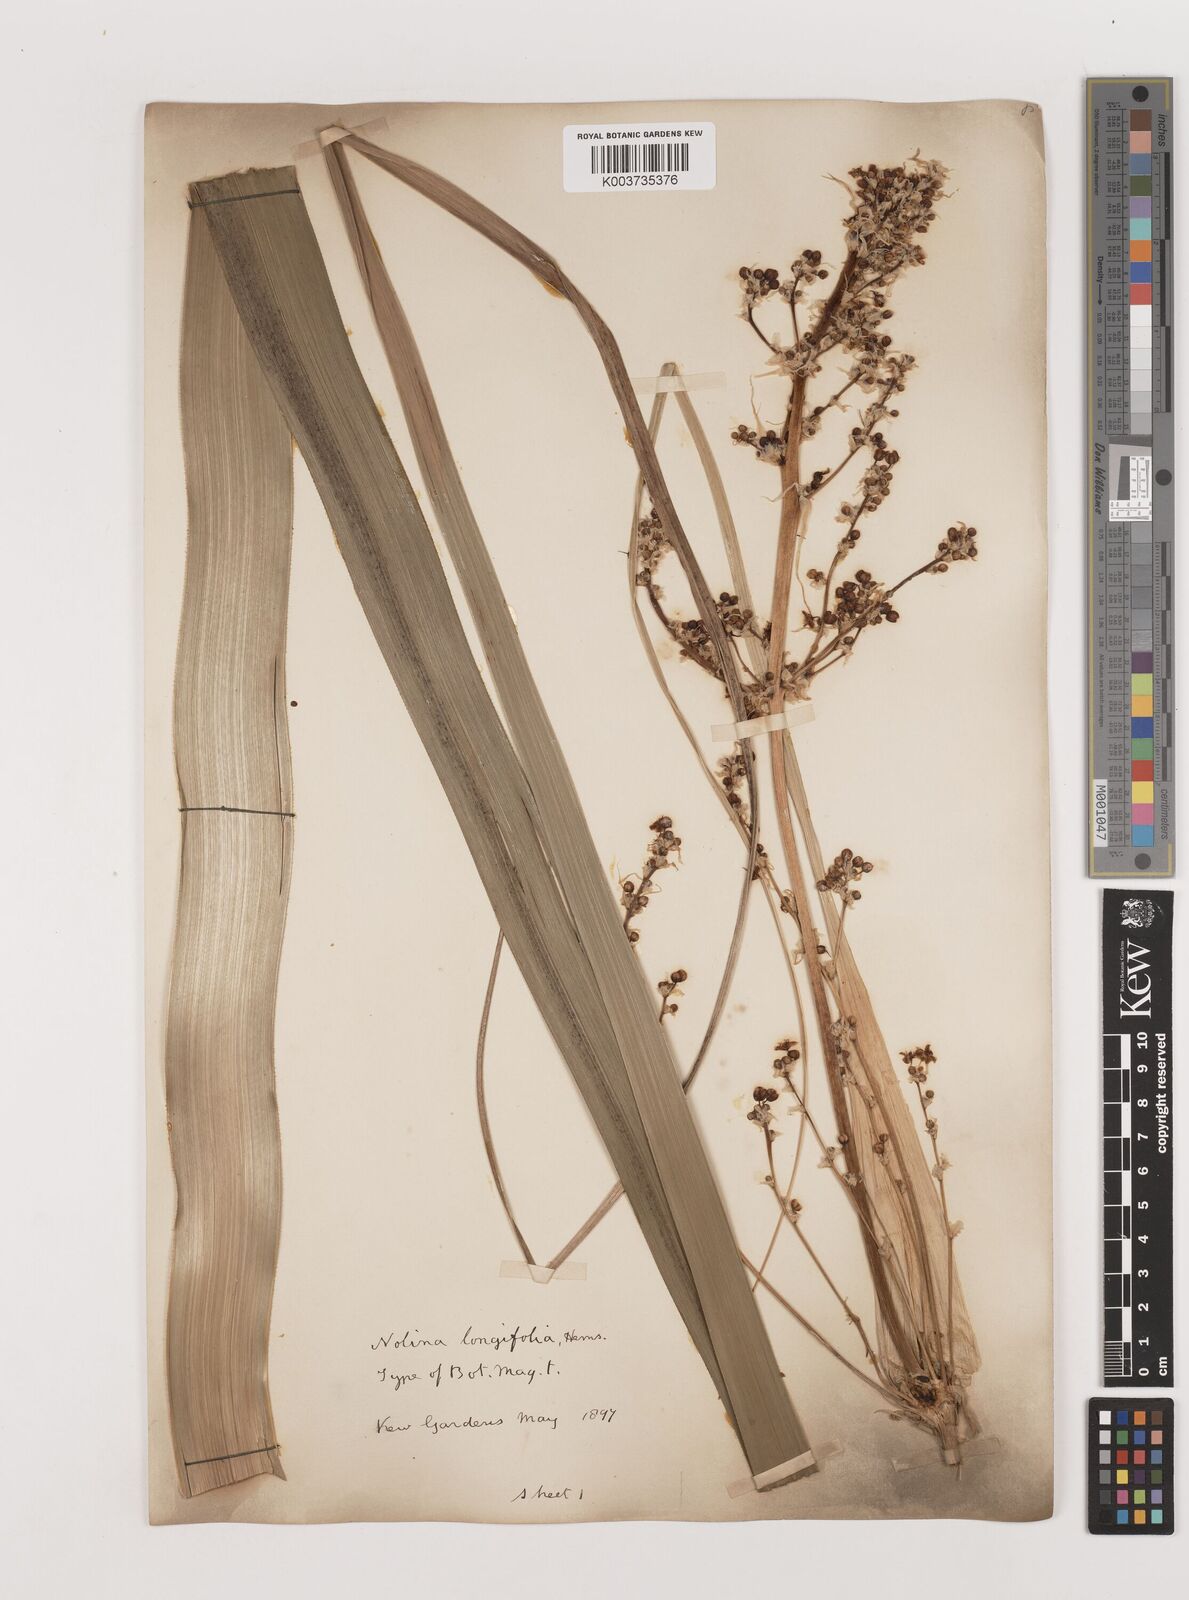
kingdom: Plantae
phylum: Tracheophyta
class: Liliopsida
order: Asparagales
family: Asparagaceae
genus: Nolina
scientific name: Nolina parviflora
